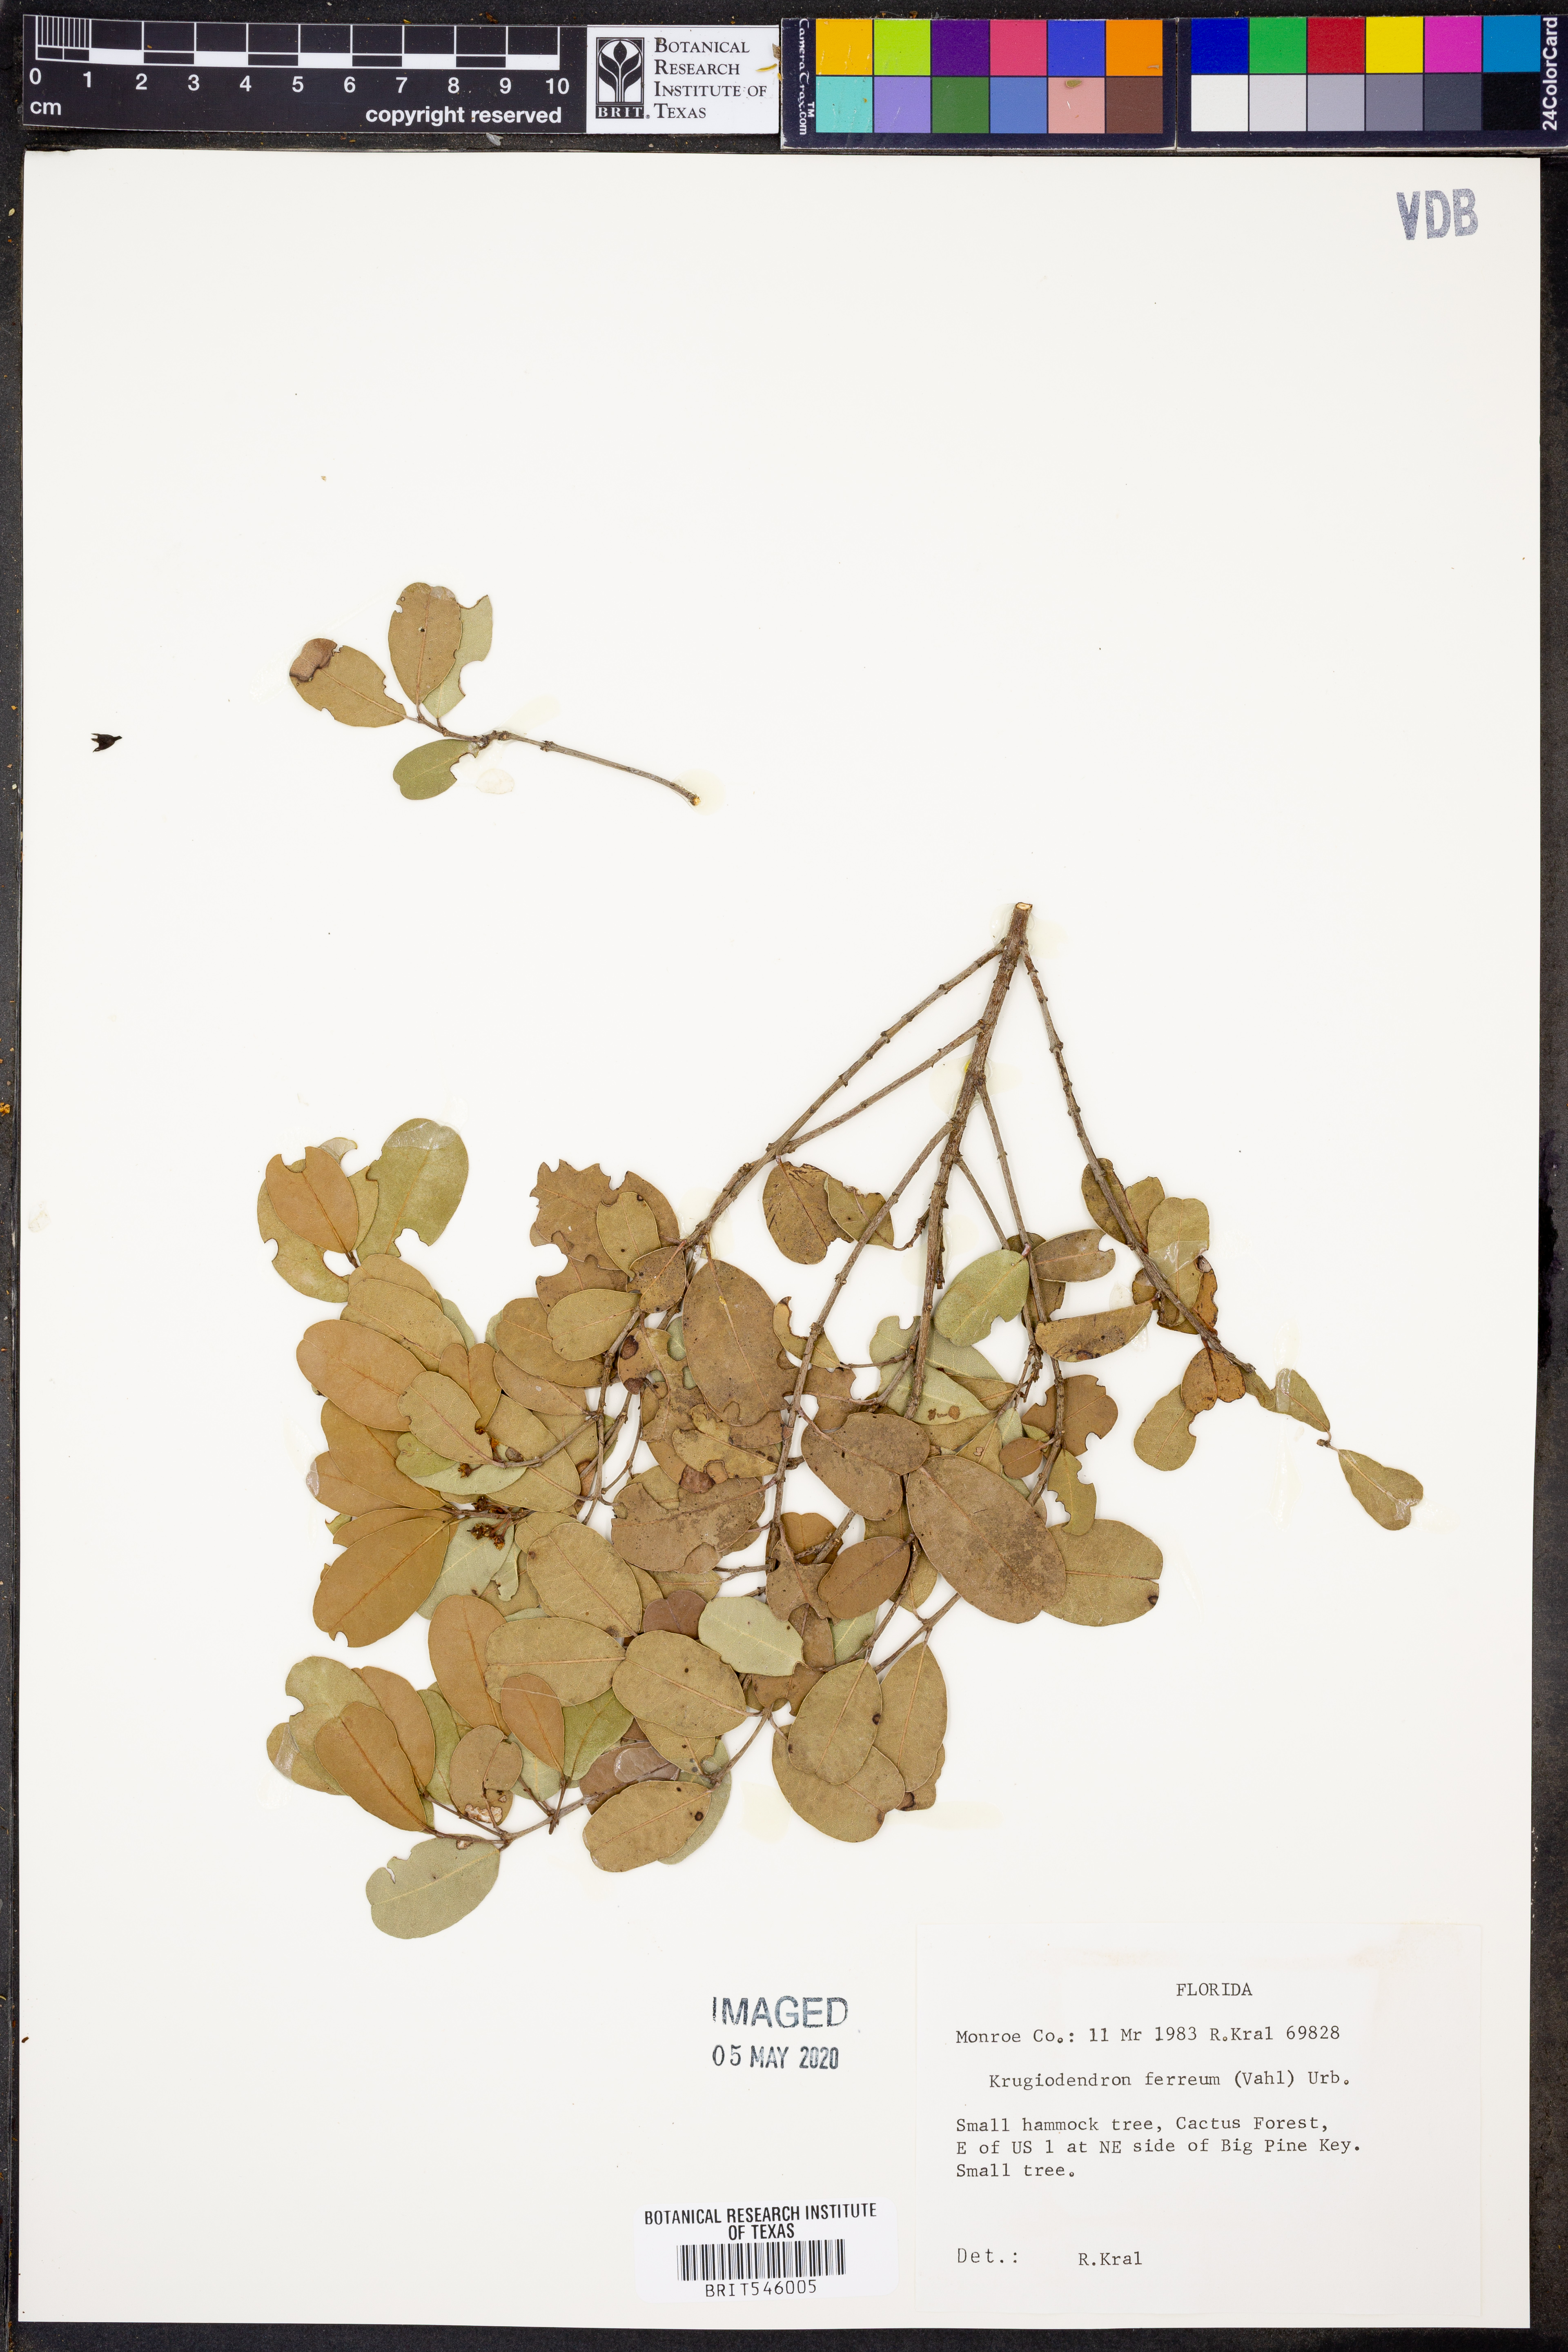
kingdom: Plantae
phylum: Tracheophyta
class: Magnoliopsida
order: Rosales
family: Rhamnaceae
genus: Krugiodendron
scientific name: Krugiodendron ferreum
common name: Iron wood
